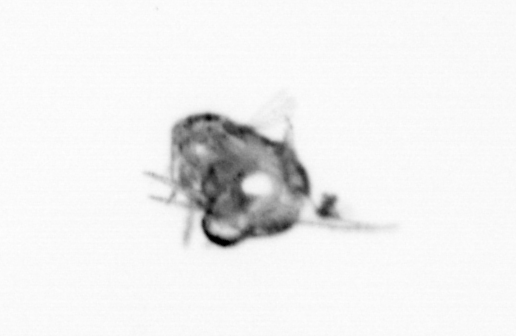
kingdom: Animalia
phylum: Arthropoda
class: Malacostraca
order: Decapoda
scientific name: Decapoda
